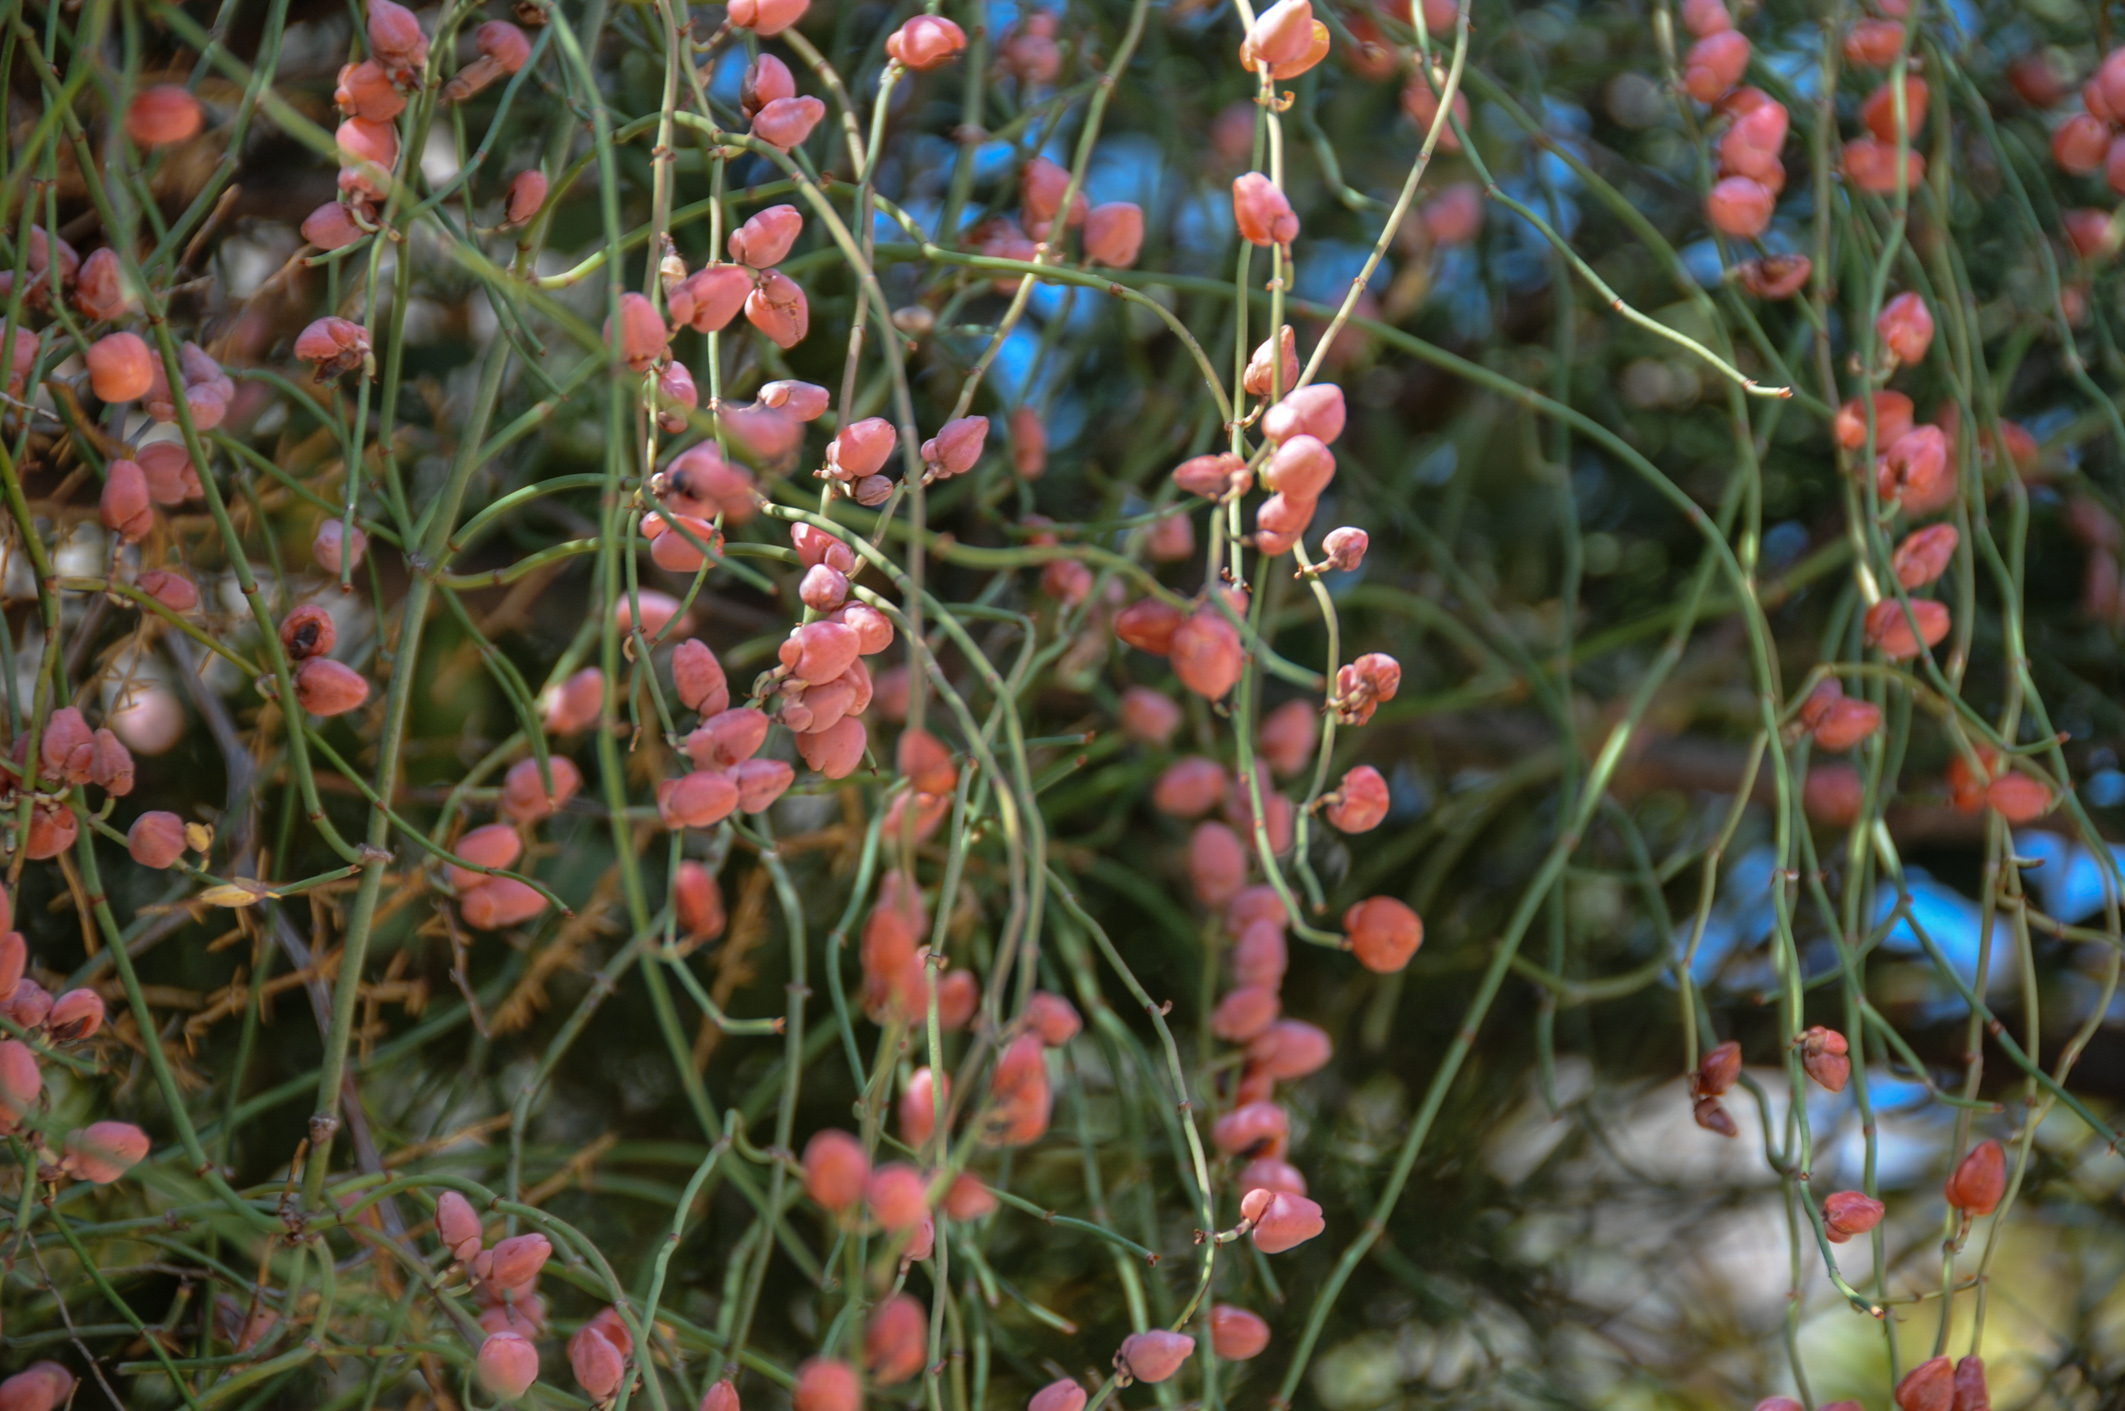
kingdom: Plantae
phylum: Tracheophyta
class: Gnetopsida
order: Ephedrales
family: Ephedraceae
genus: Ephedra
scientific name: Ephedra foeminea
